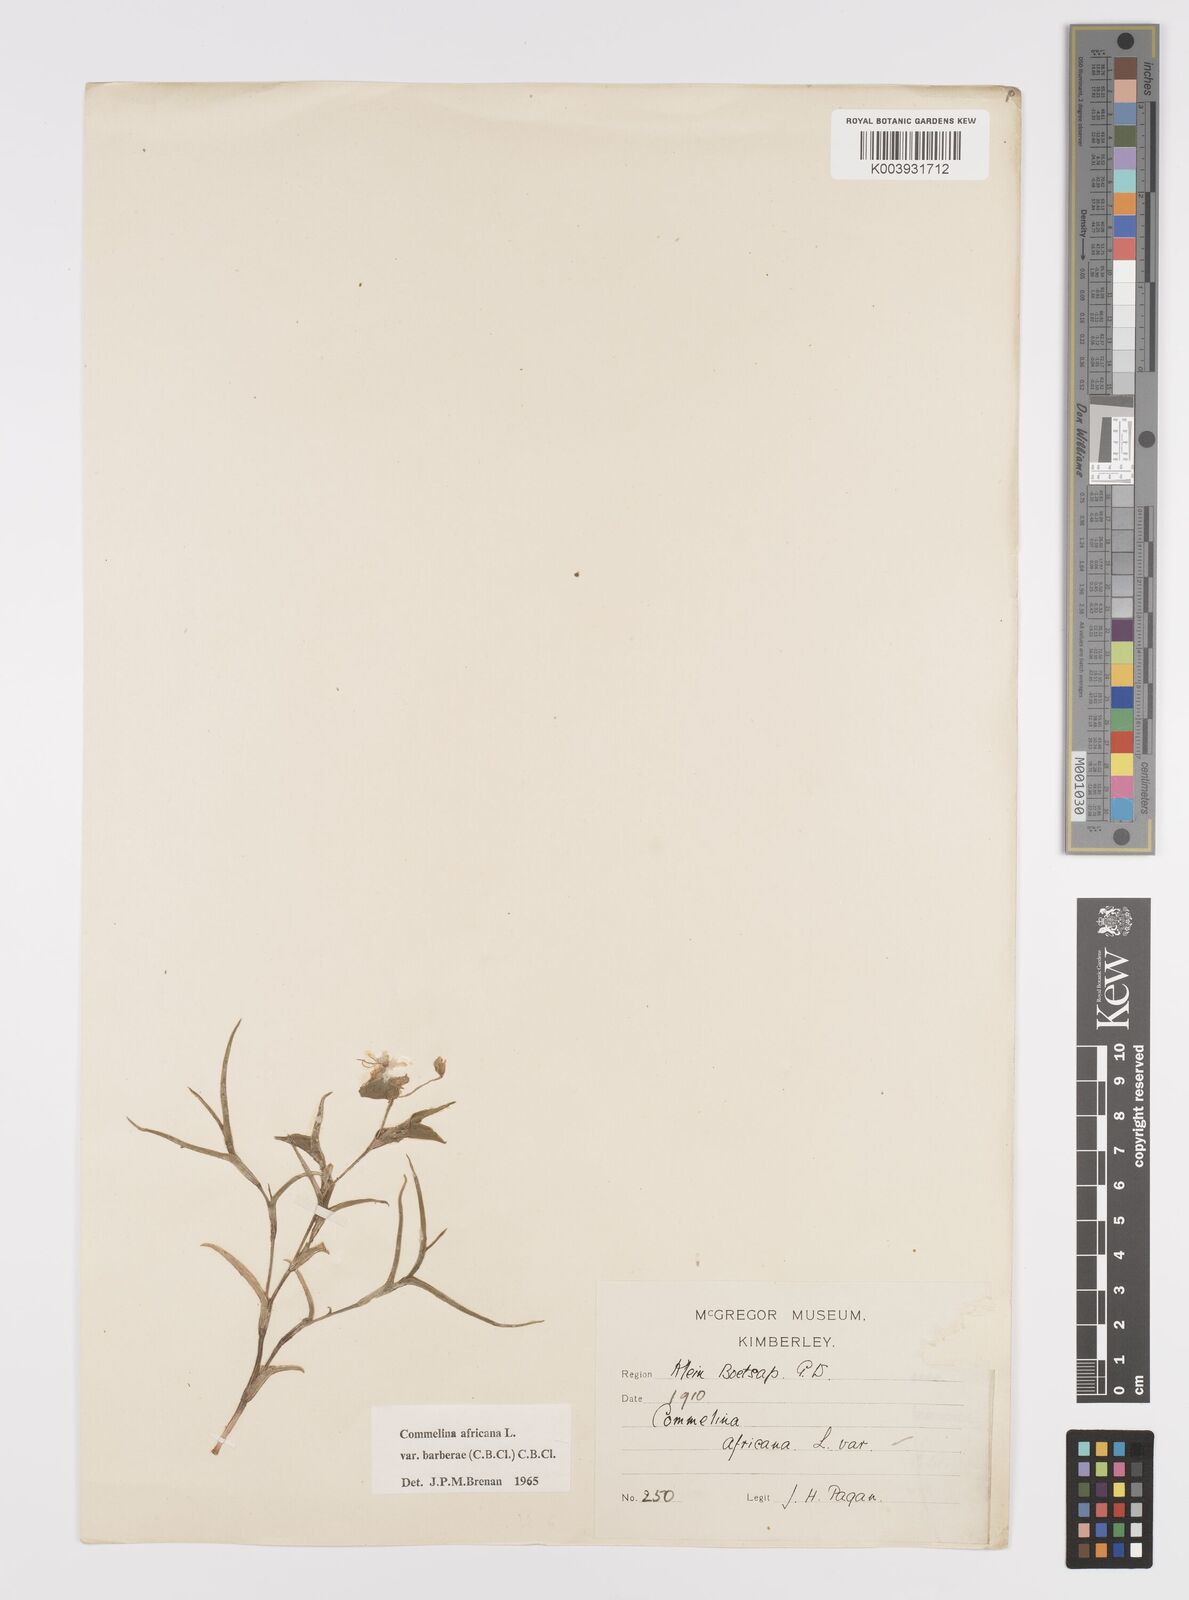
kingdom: Plantae
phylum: Tracheophyta
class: Liliopsida
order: Commelinales
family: Commelinaceae
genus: Commelina
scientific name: Commelina africana
